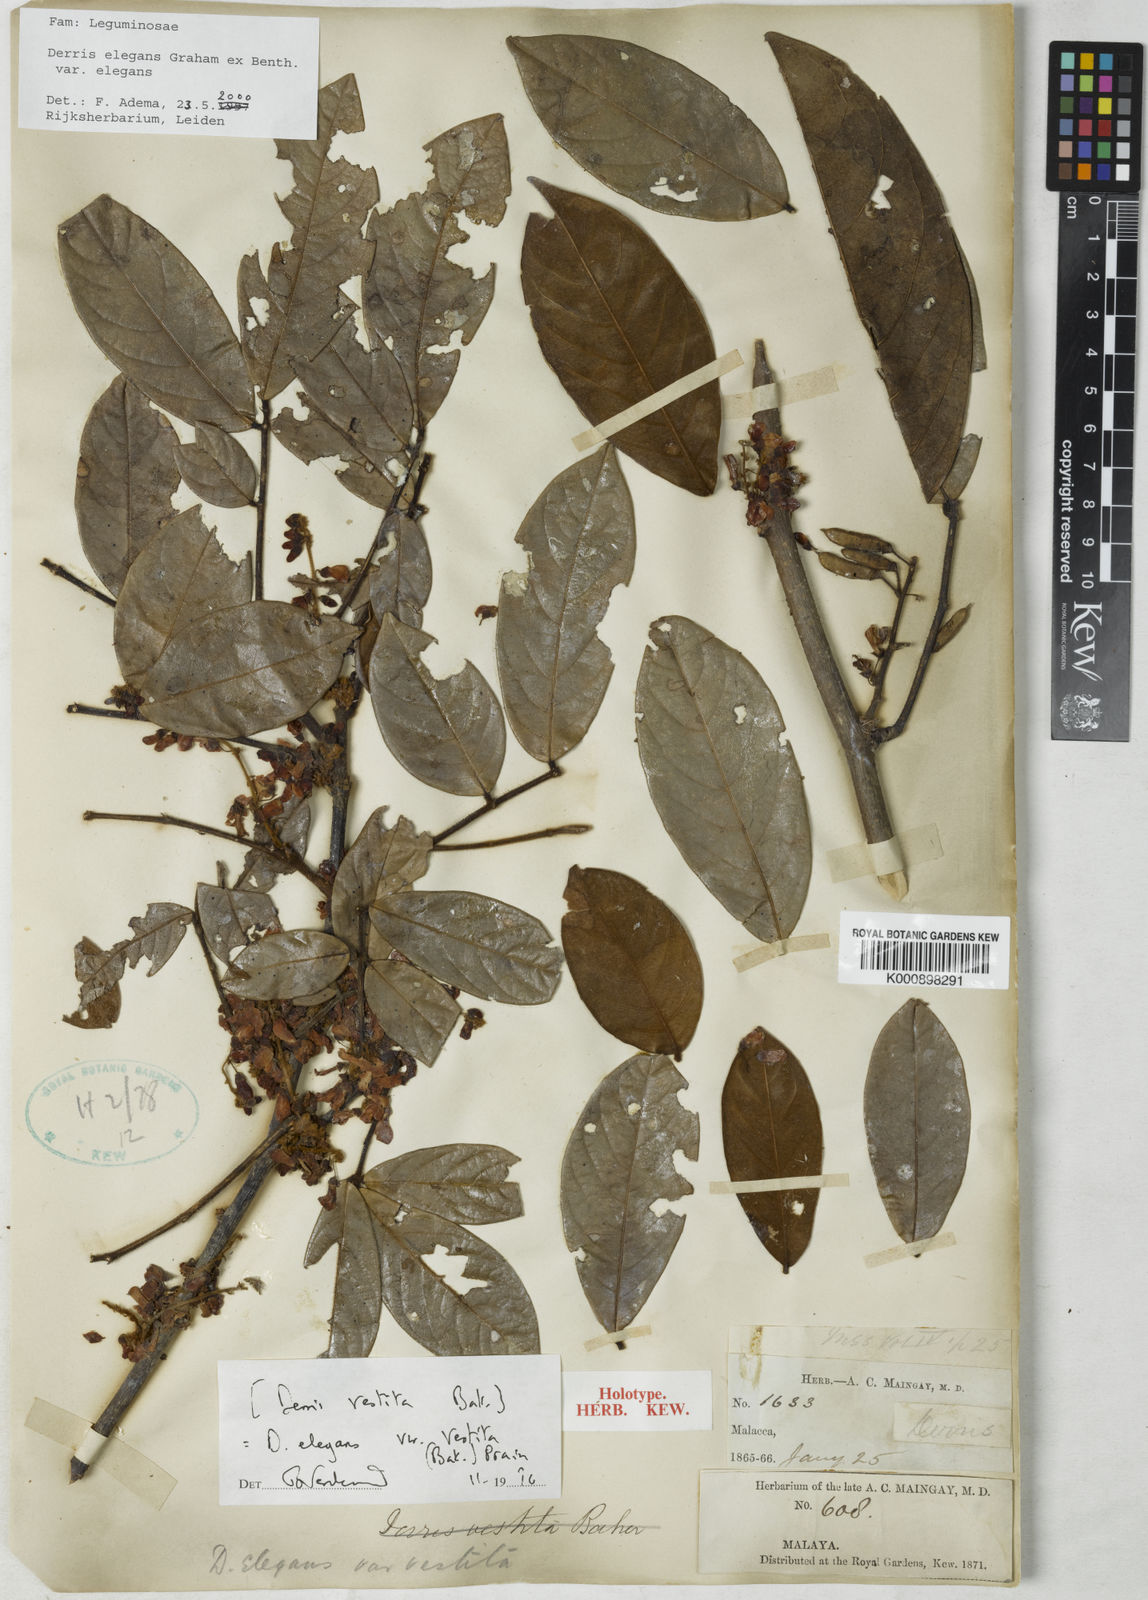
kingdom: Plantae
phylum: Tracheophyta
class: Magnoliopsida
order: Fabales
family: Fabaceae
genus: Derris
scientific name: Derris elegans
